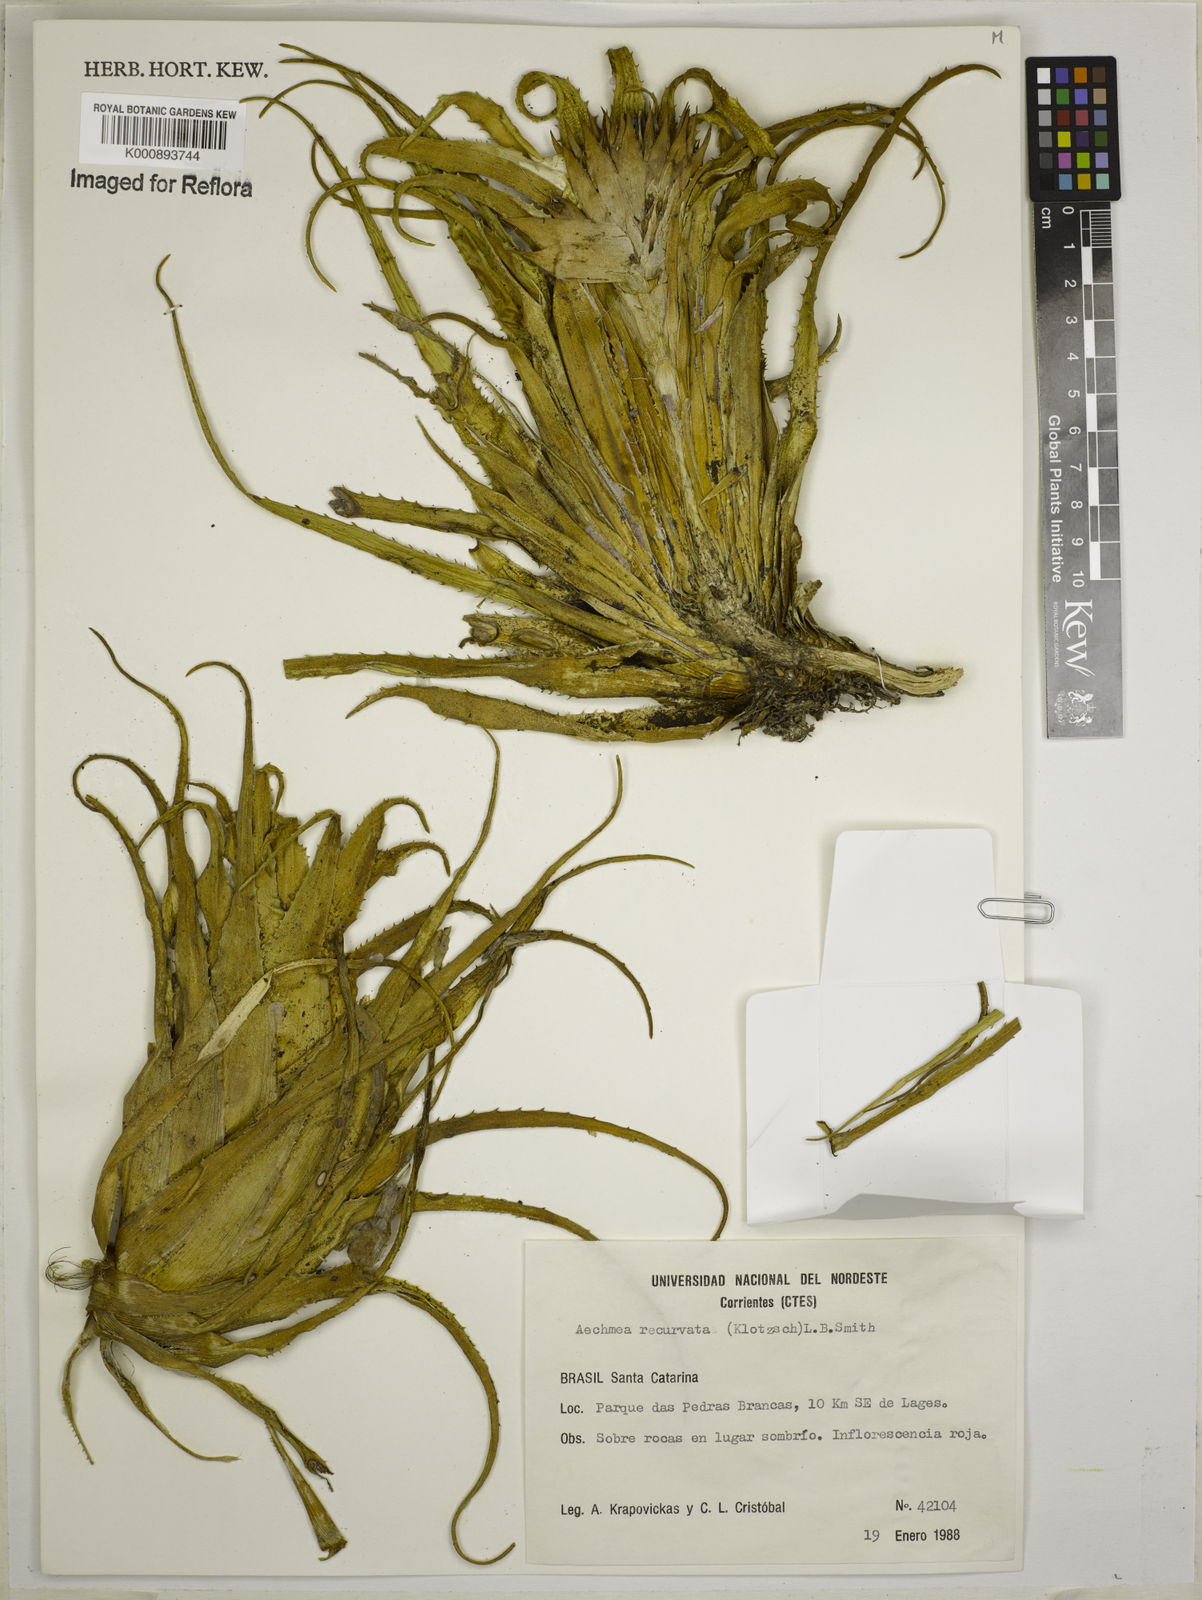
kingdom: Plantae
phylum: Tracheophyta
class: Liliopsida
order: Poales
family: Bromeliaceae
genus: Aechmea
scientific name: Aechmea recurvata
